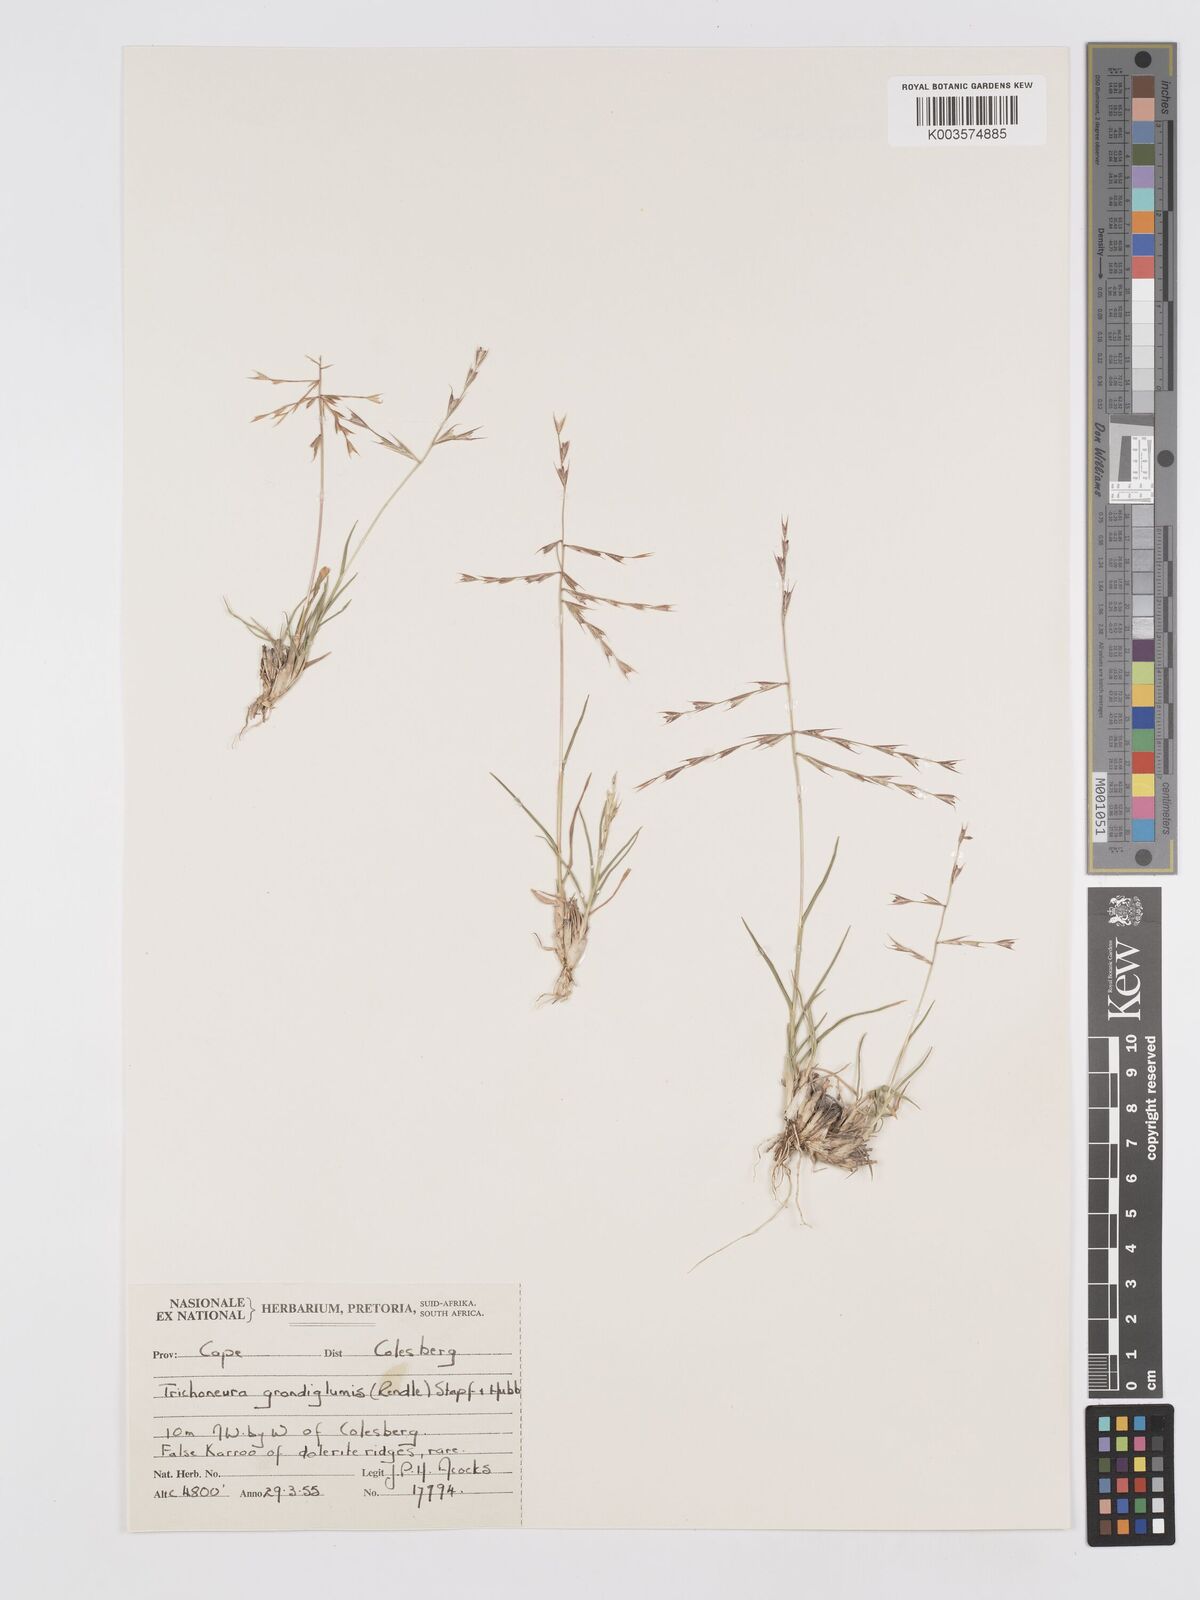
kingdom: Plantae
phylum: Tracheophyta
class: Liliopsida
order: Poales
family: Poaceae
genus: Trichoneura
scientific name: Trichoneura grandiglumis
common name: Rolling grass
